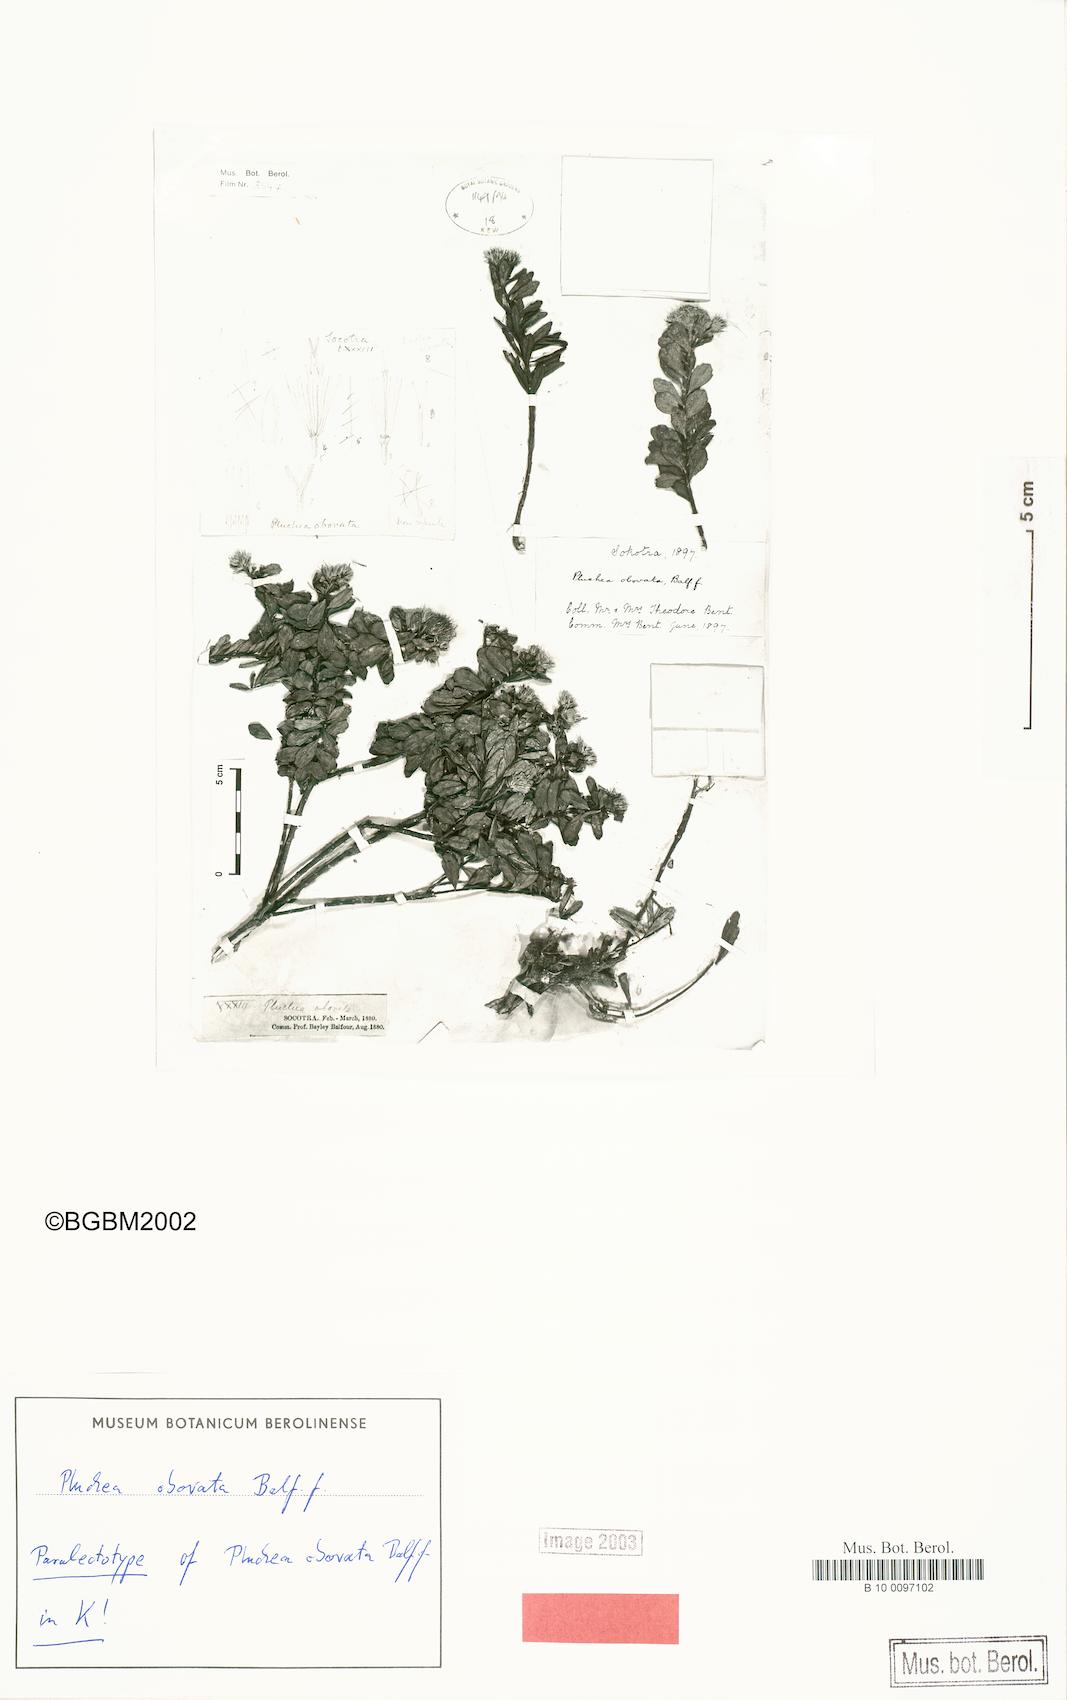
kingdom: Plantae
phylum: Tracheophyta
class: Magnoliopsida
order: Asterales
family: Asteraceae
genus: Pluchea
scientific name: Pluchea obovata
